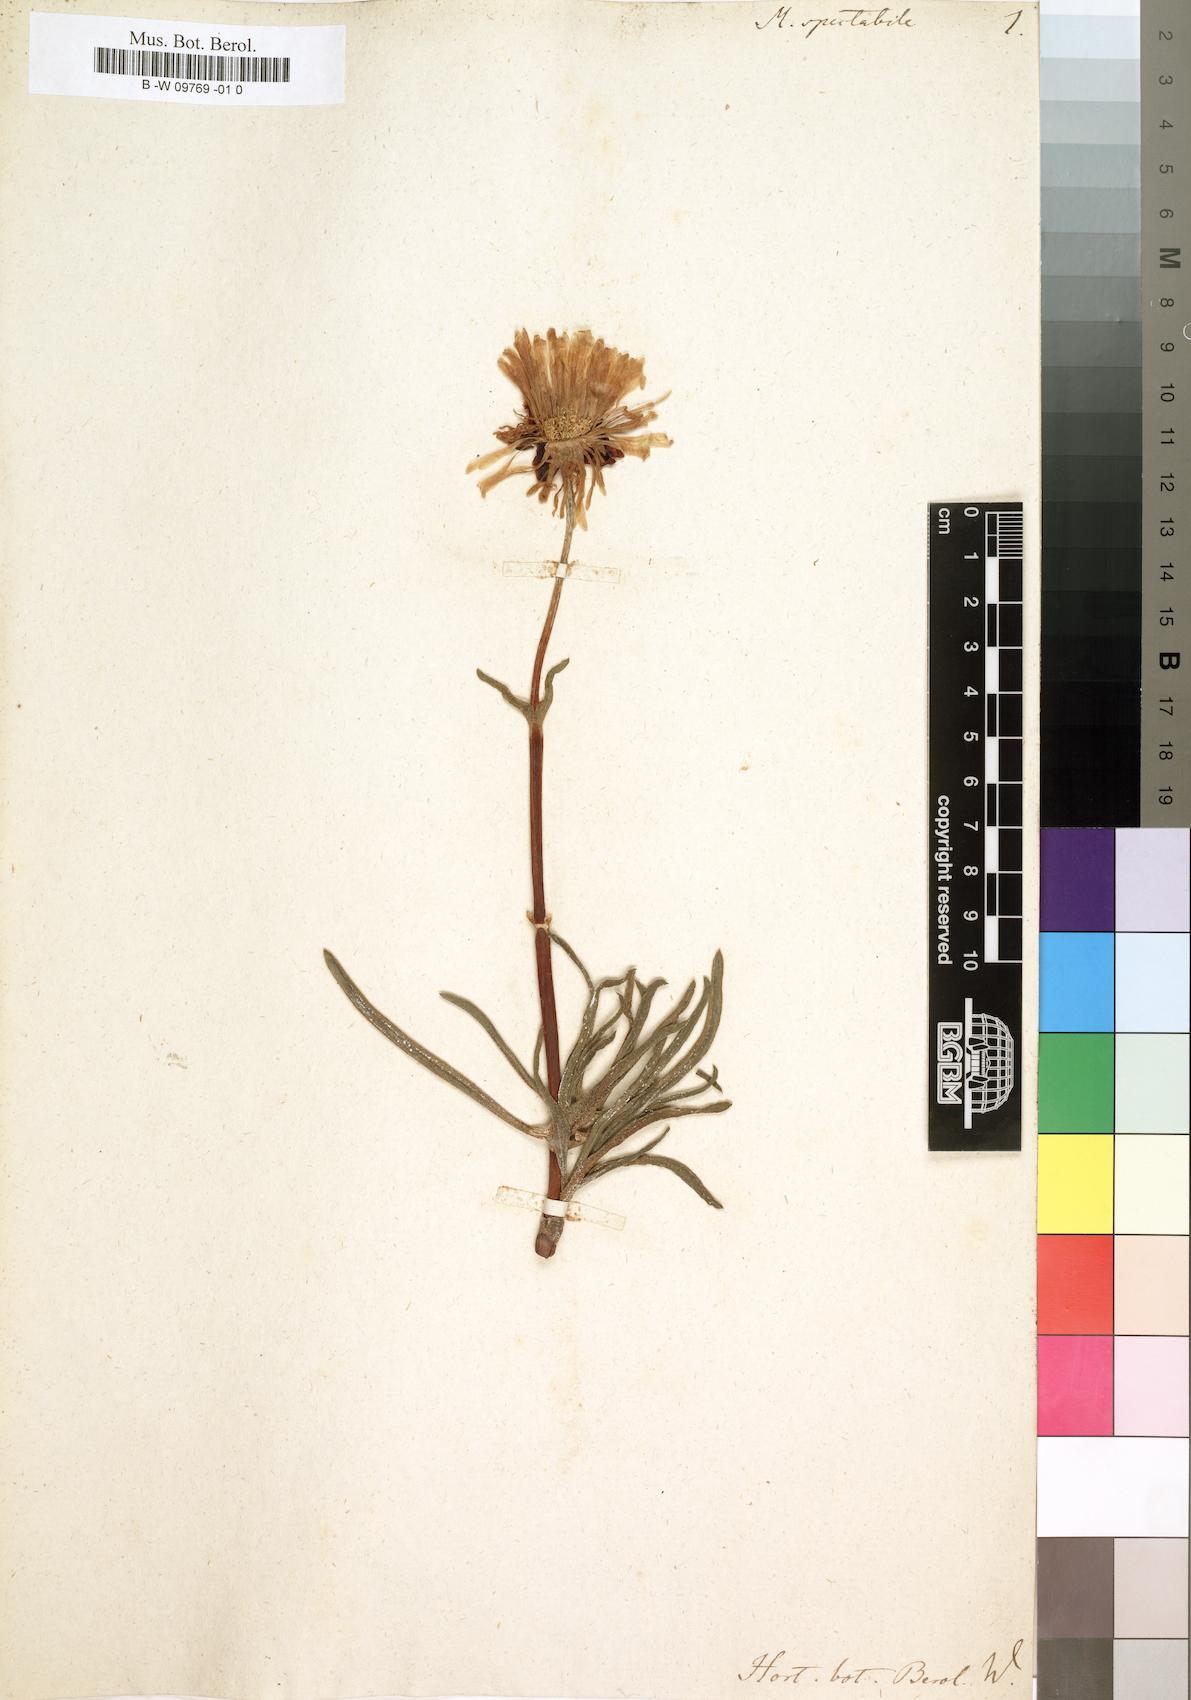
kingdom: Plantae
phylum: Tracheophyta
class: Magnoliopsida
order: Caryophyllales
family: Aizoaceae
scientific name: Aizoaceae
